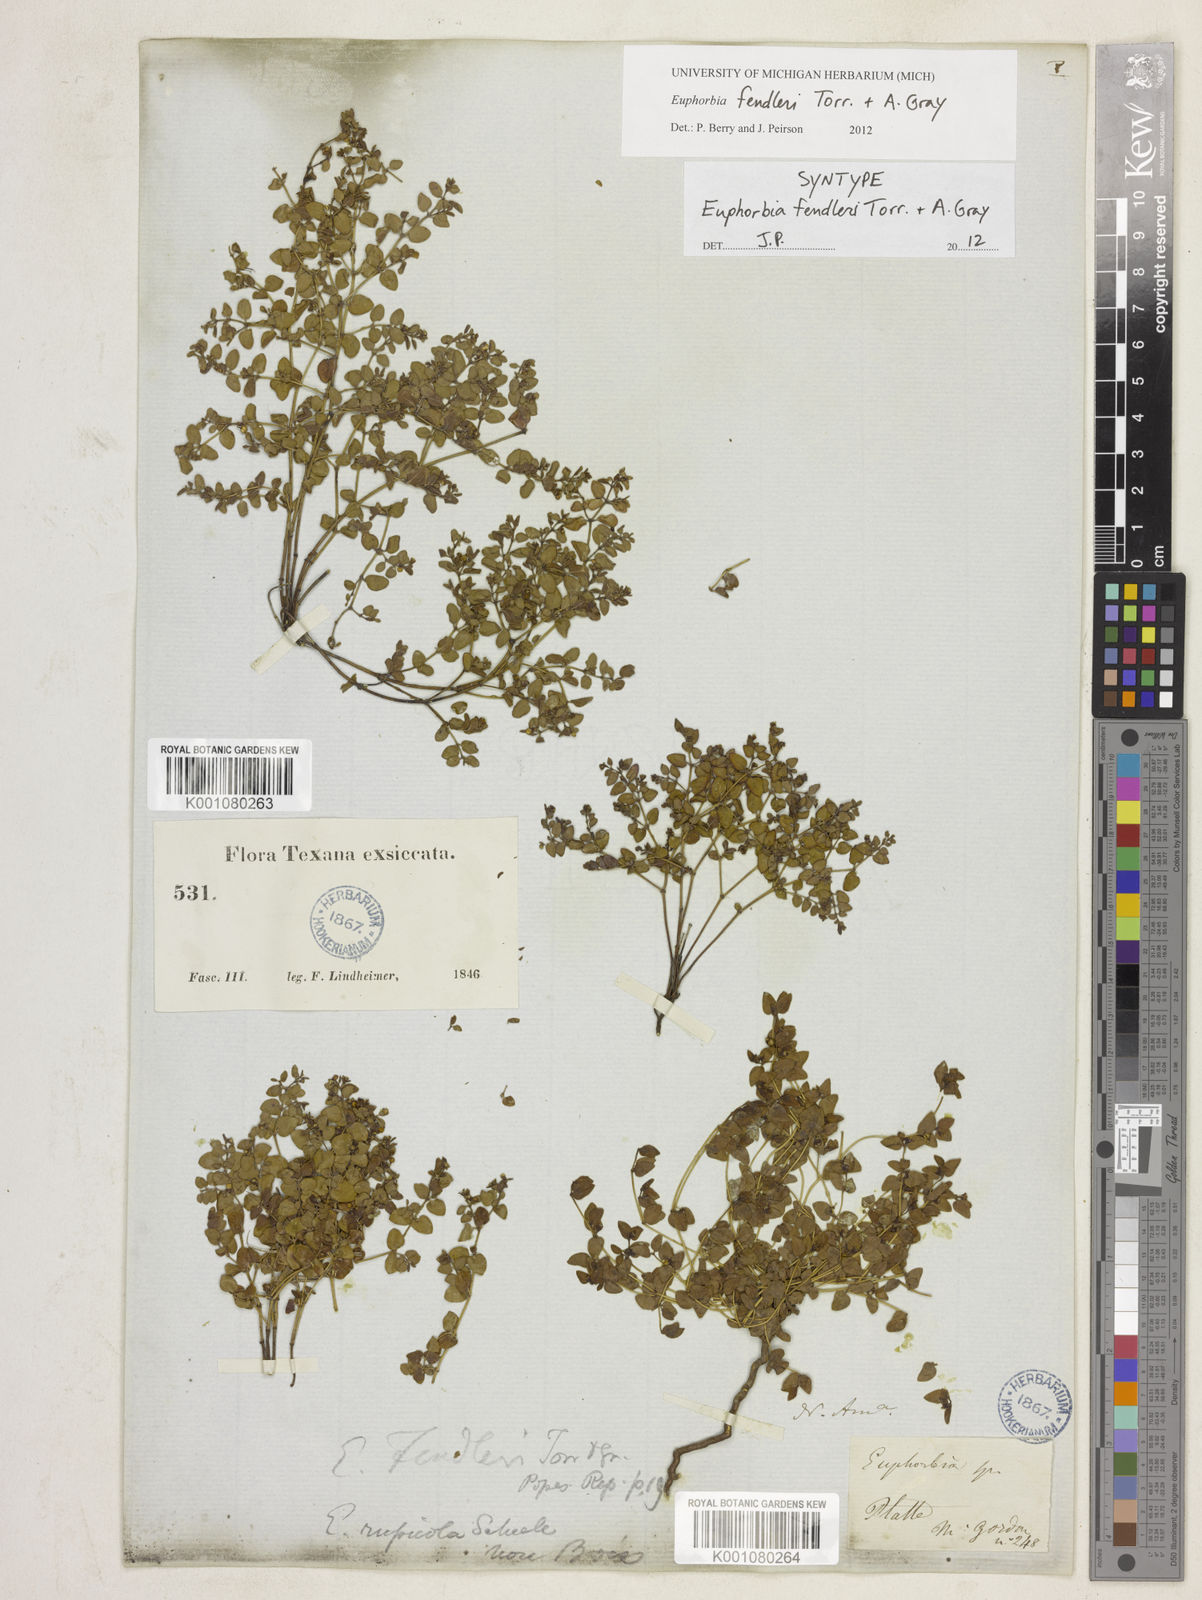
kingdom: Plantae
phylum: Tracheophyta
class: Magnoliopsida
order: Malpighiales
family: Euphorbiaceae
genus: Euphorbia
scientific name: Euphorbia fendleri
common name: Fendler's euphorbia
